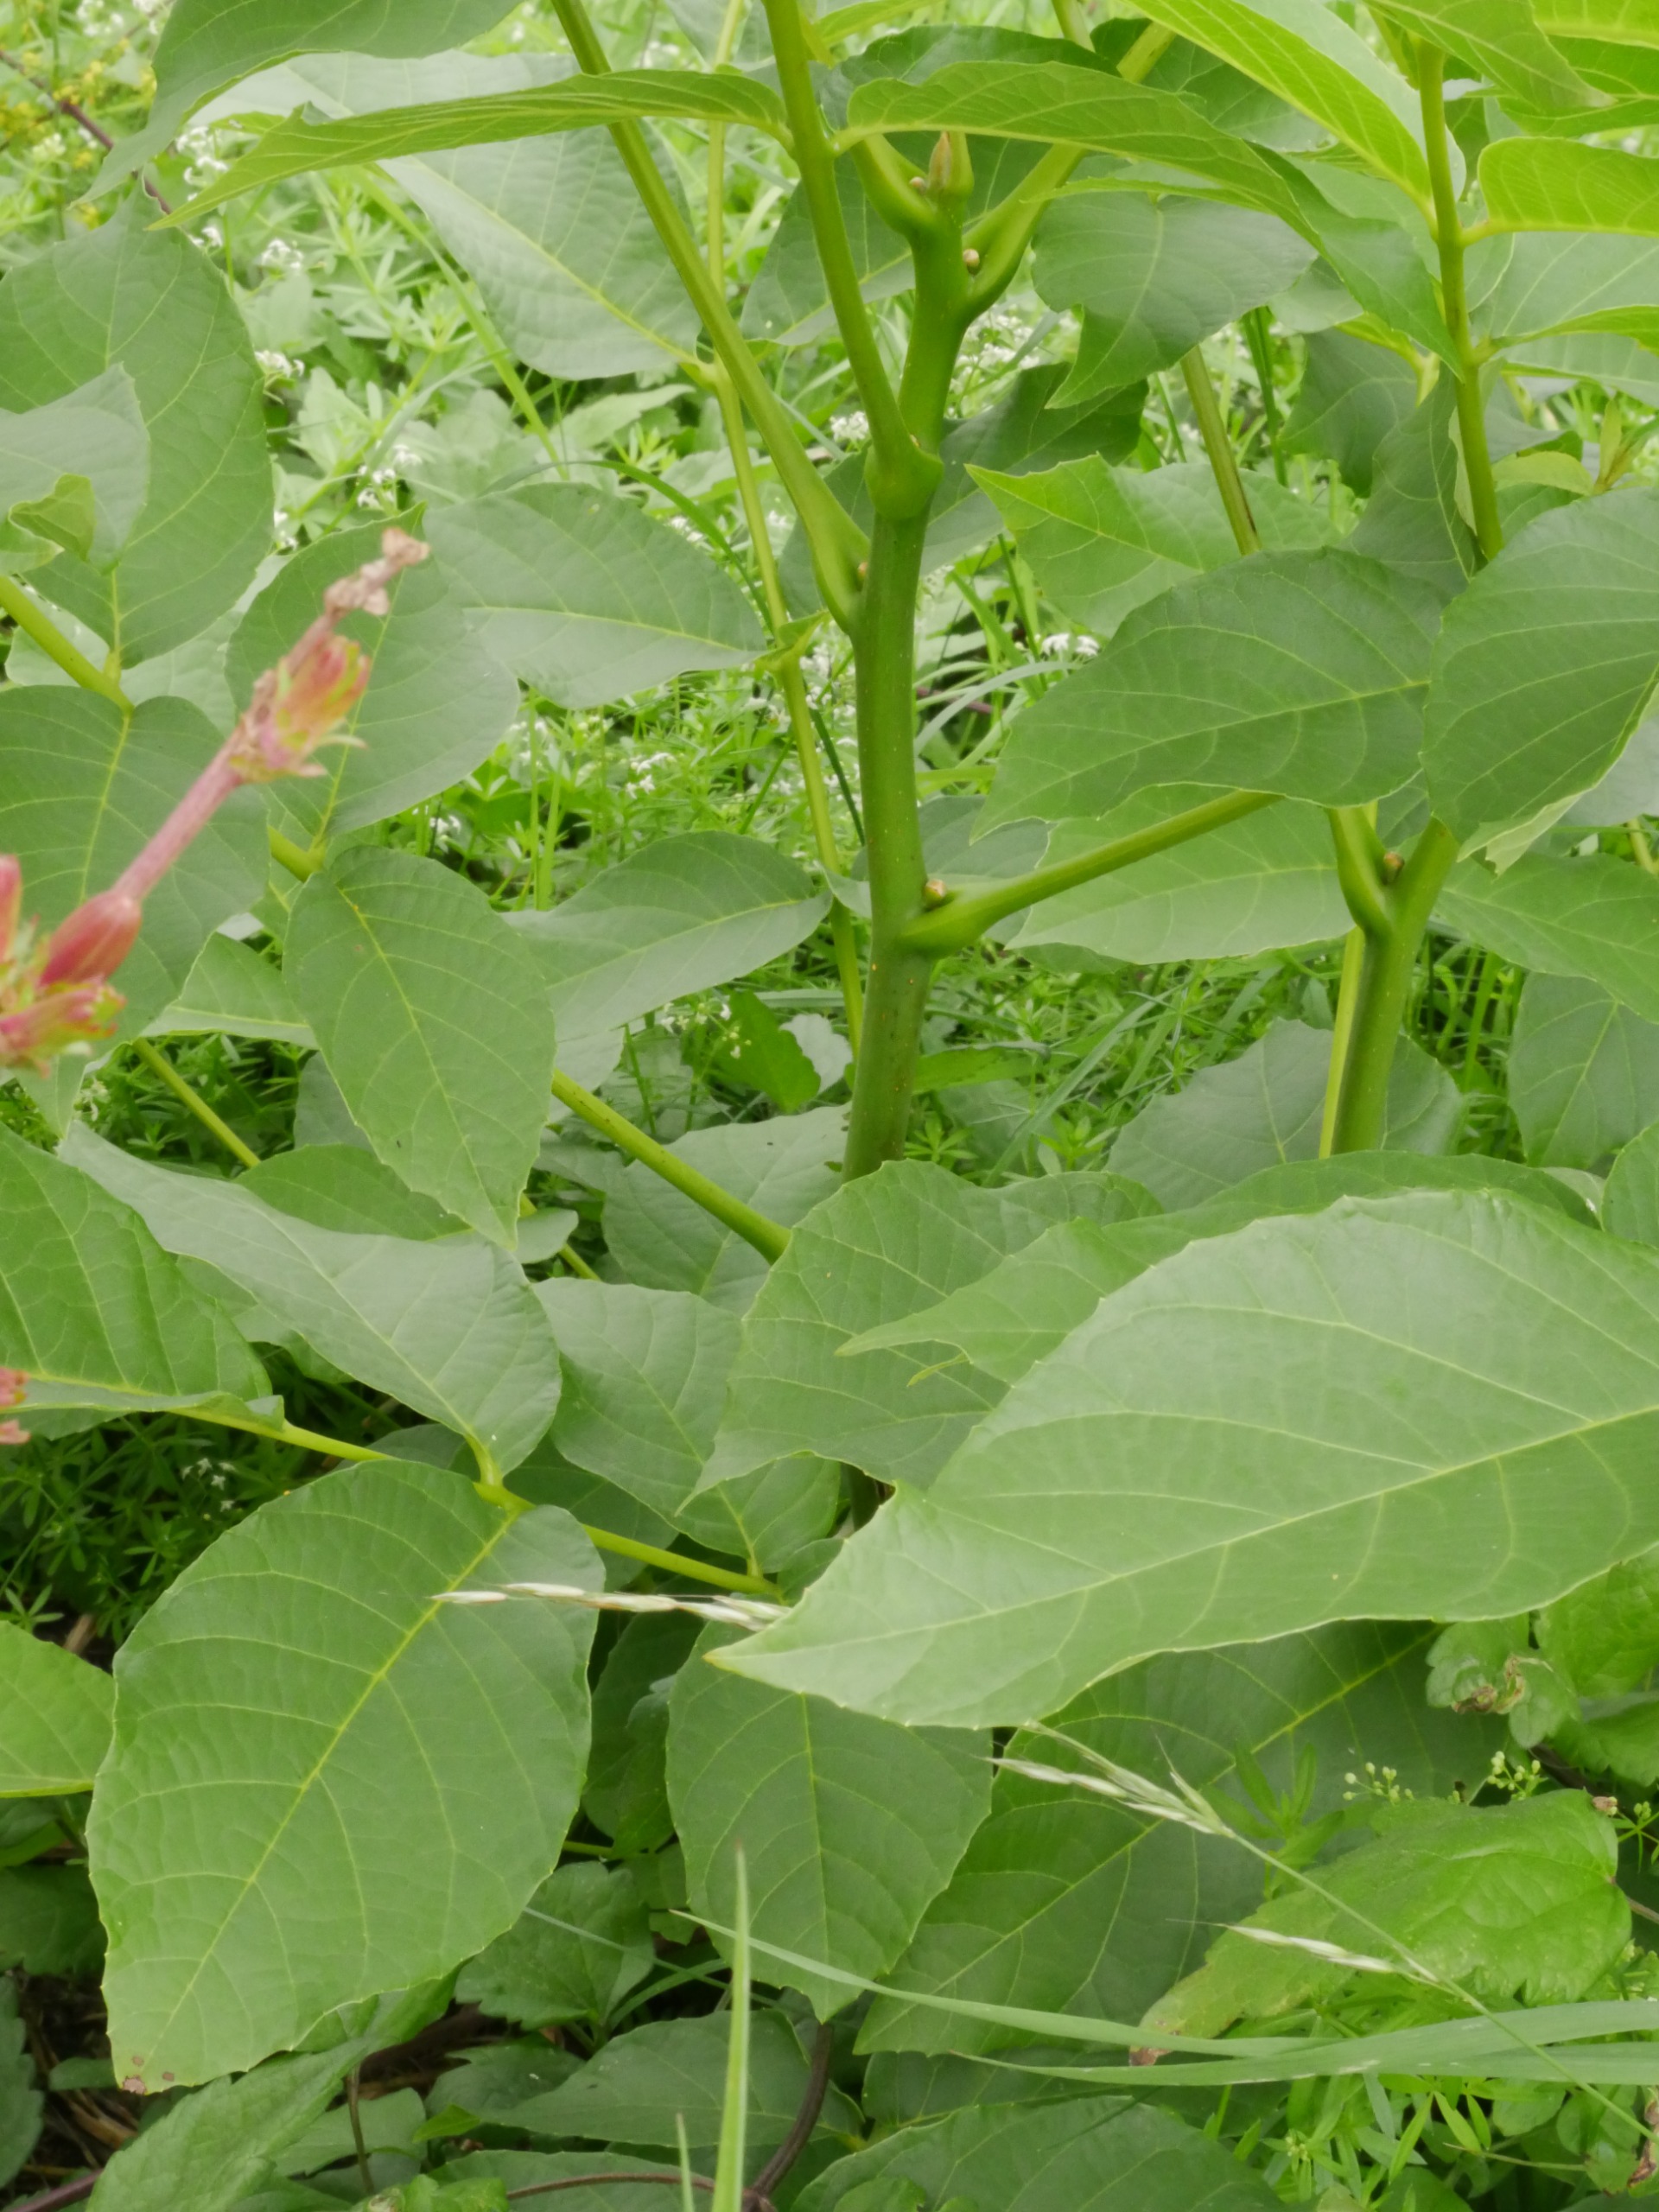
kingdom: Plantae
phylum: Tracheophyta
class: Magnoliopsida
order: Fagales
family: Juglandaceae
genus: Juglans
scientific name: Juglans regia
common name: Almindelig valnød
